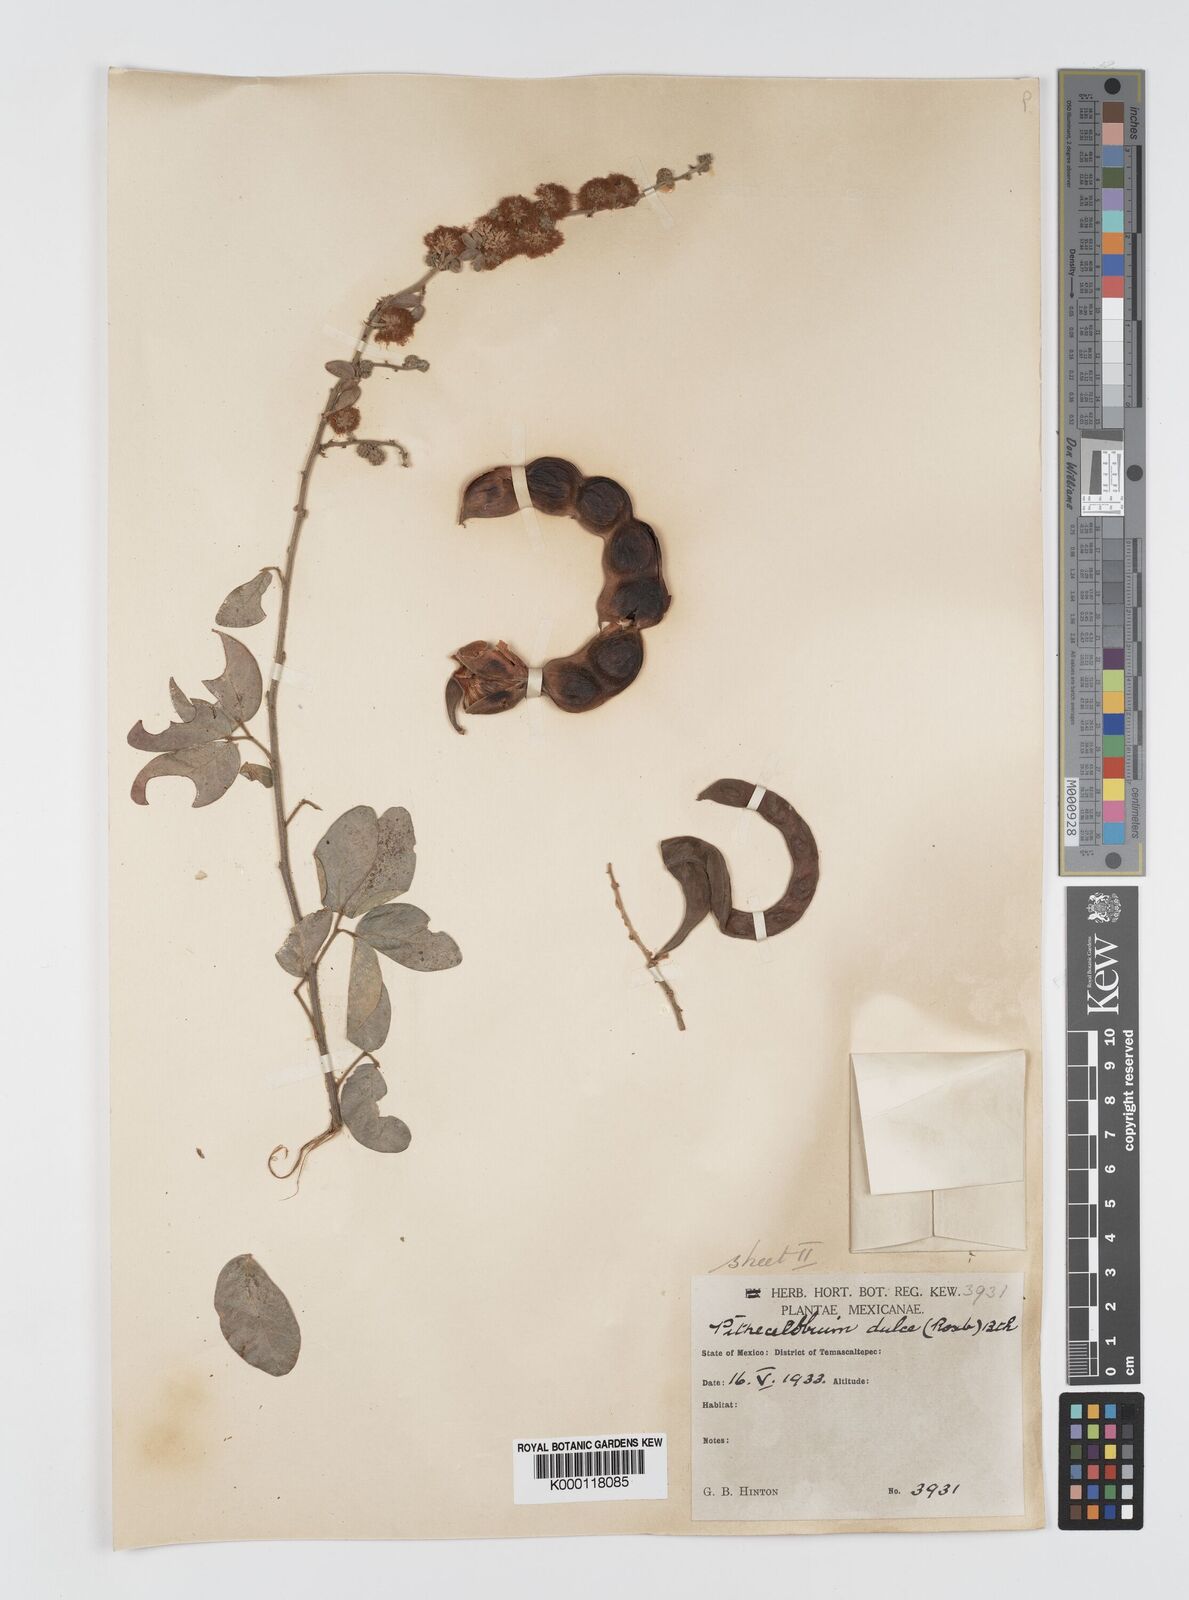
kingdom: Plantae
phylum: Tracheophyta
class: Magnoliopsida
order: Fabales
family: Fabaceae
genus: Pithecellobium
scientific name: Pithecellobium dulce
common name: Monkeypod
